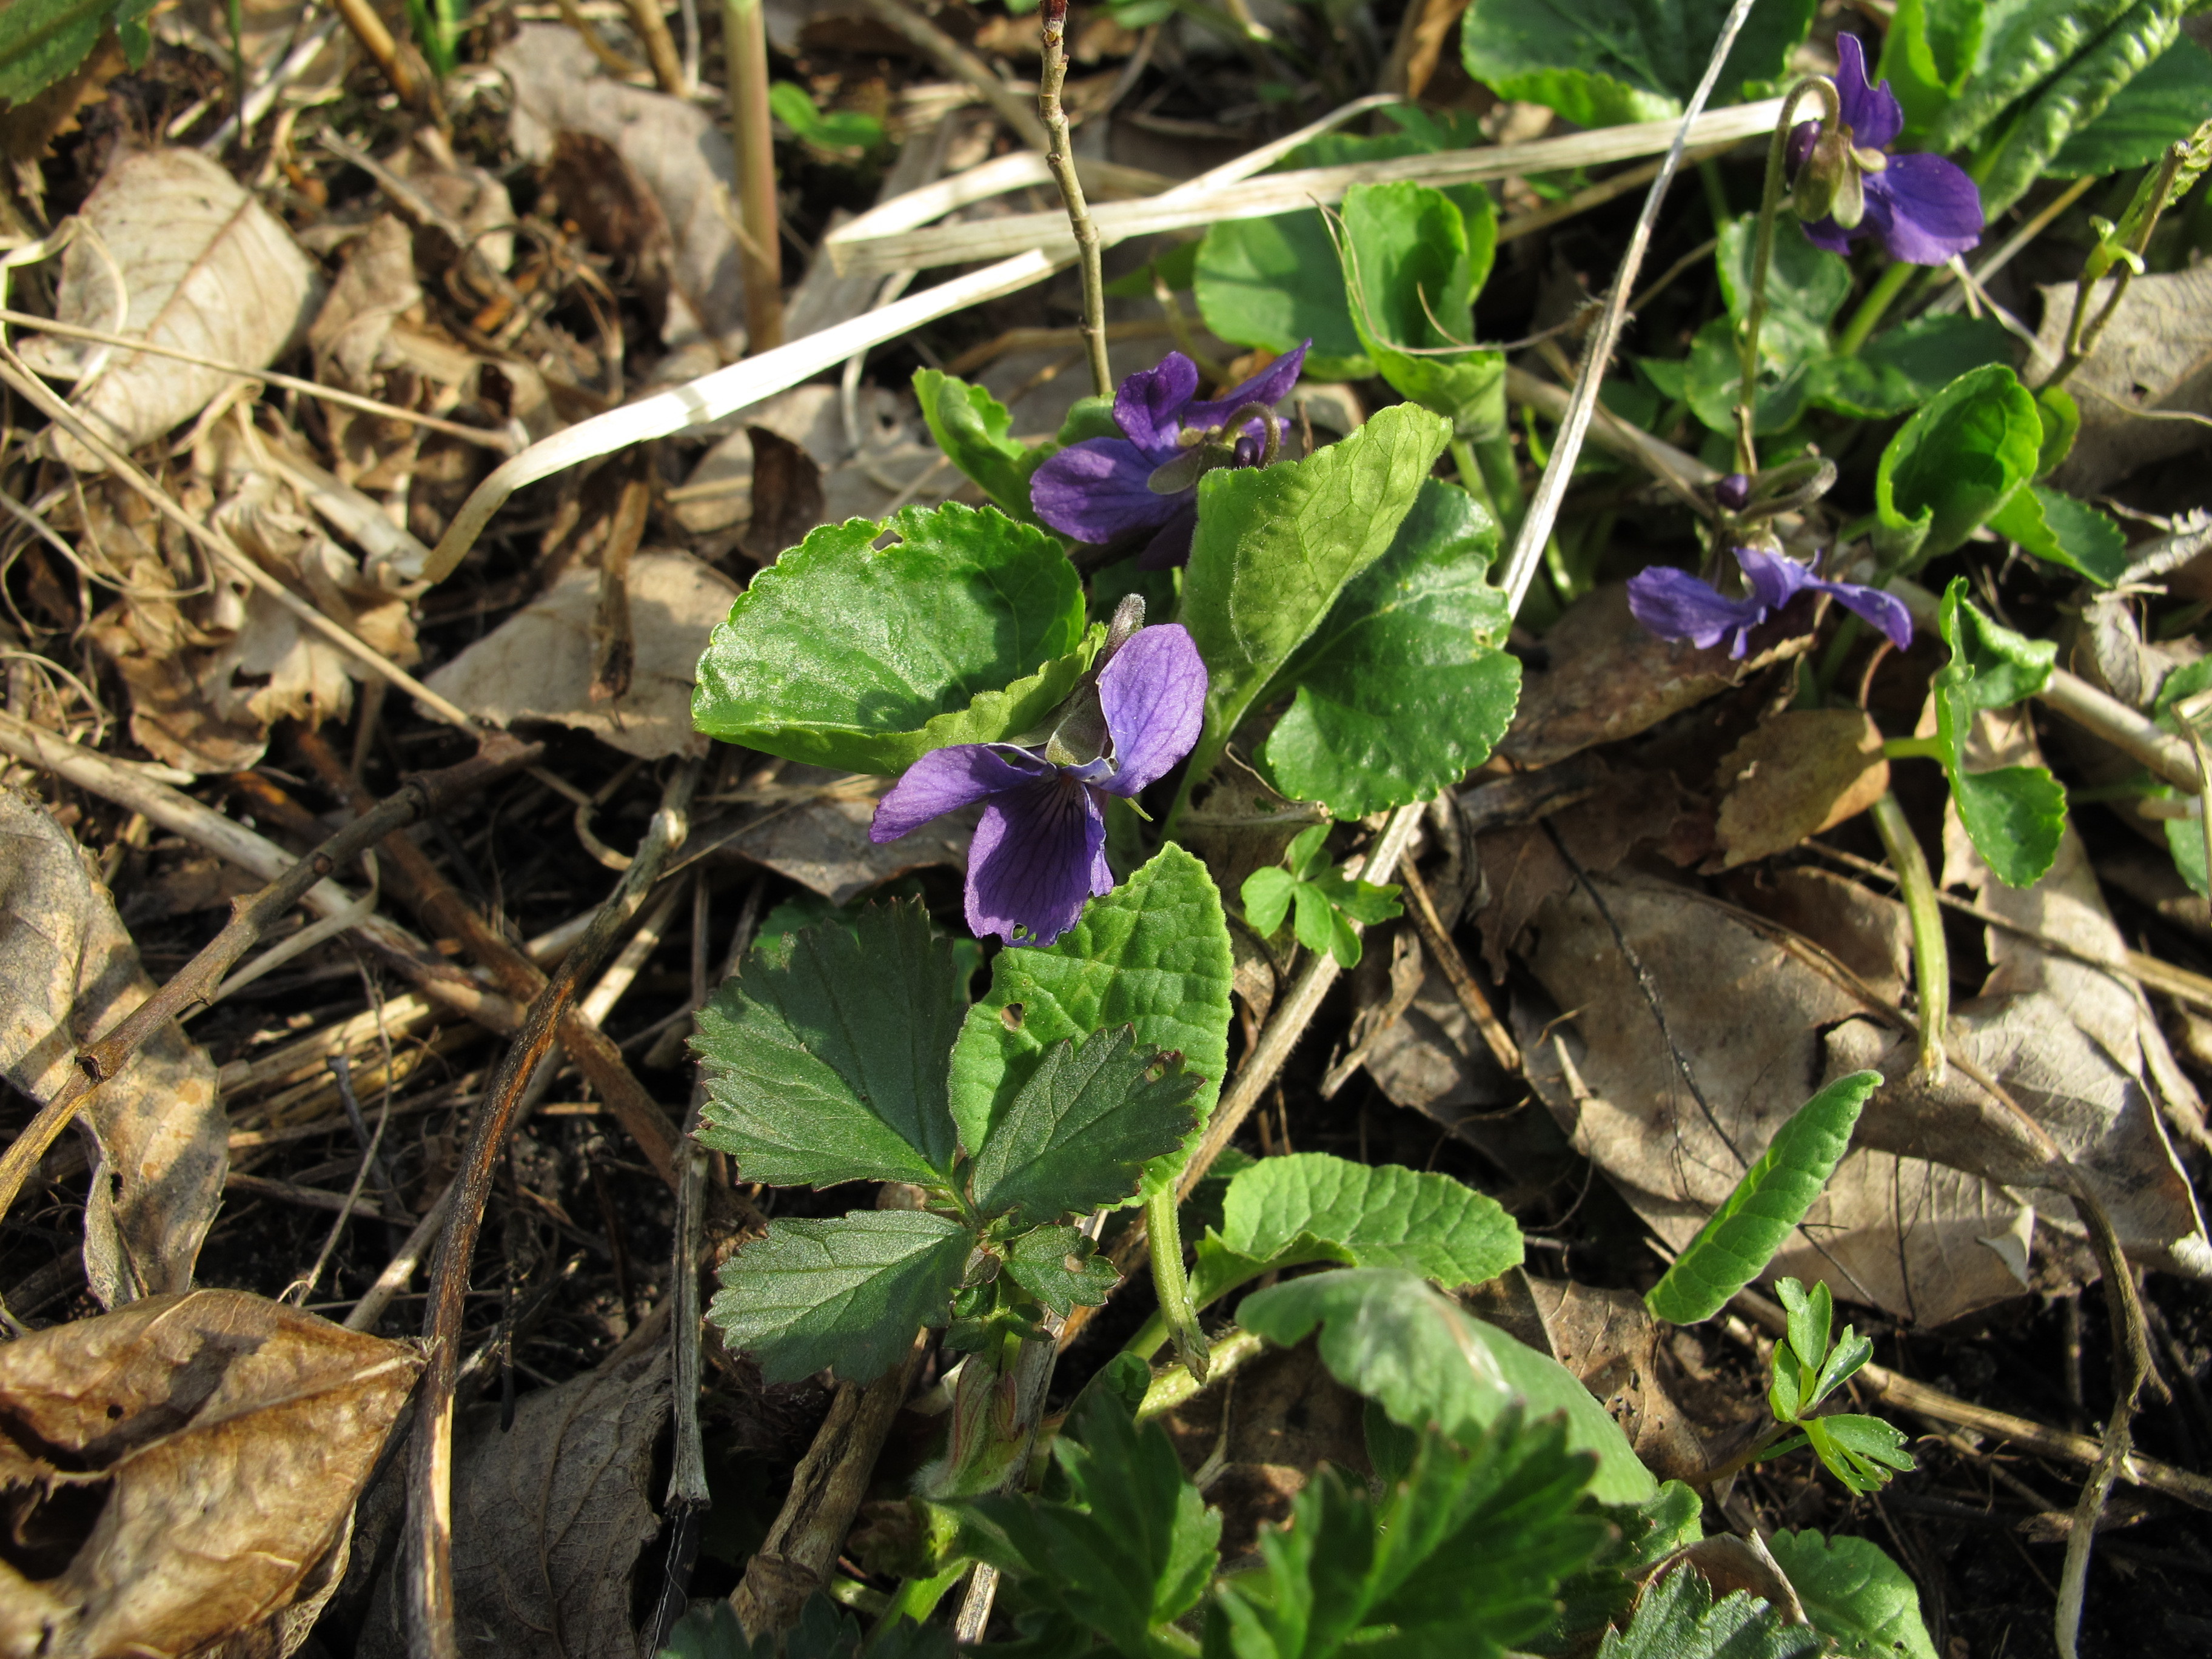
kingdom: Plantae
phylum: Tracheophyta
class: Magnoliopsida
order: Malpighiales
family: Violaceae
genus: Viola
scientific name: Viola odorata
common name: Sweet violet
